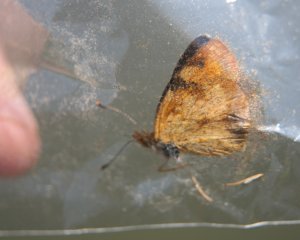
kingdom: Animalia
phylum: Arthropoda
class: Insecta
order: Lepidoptera
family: Nymphalidae
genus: Phyciodes
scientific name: Phyciodes tharos
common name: Northern Crescent
